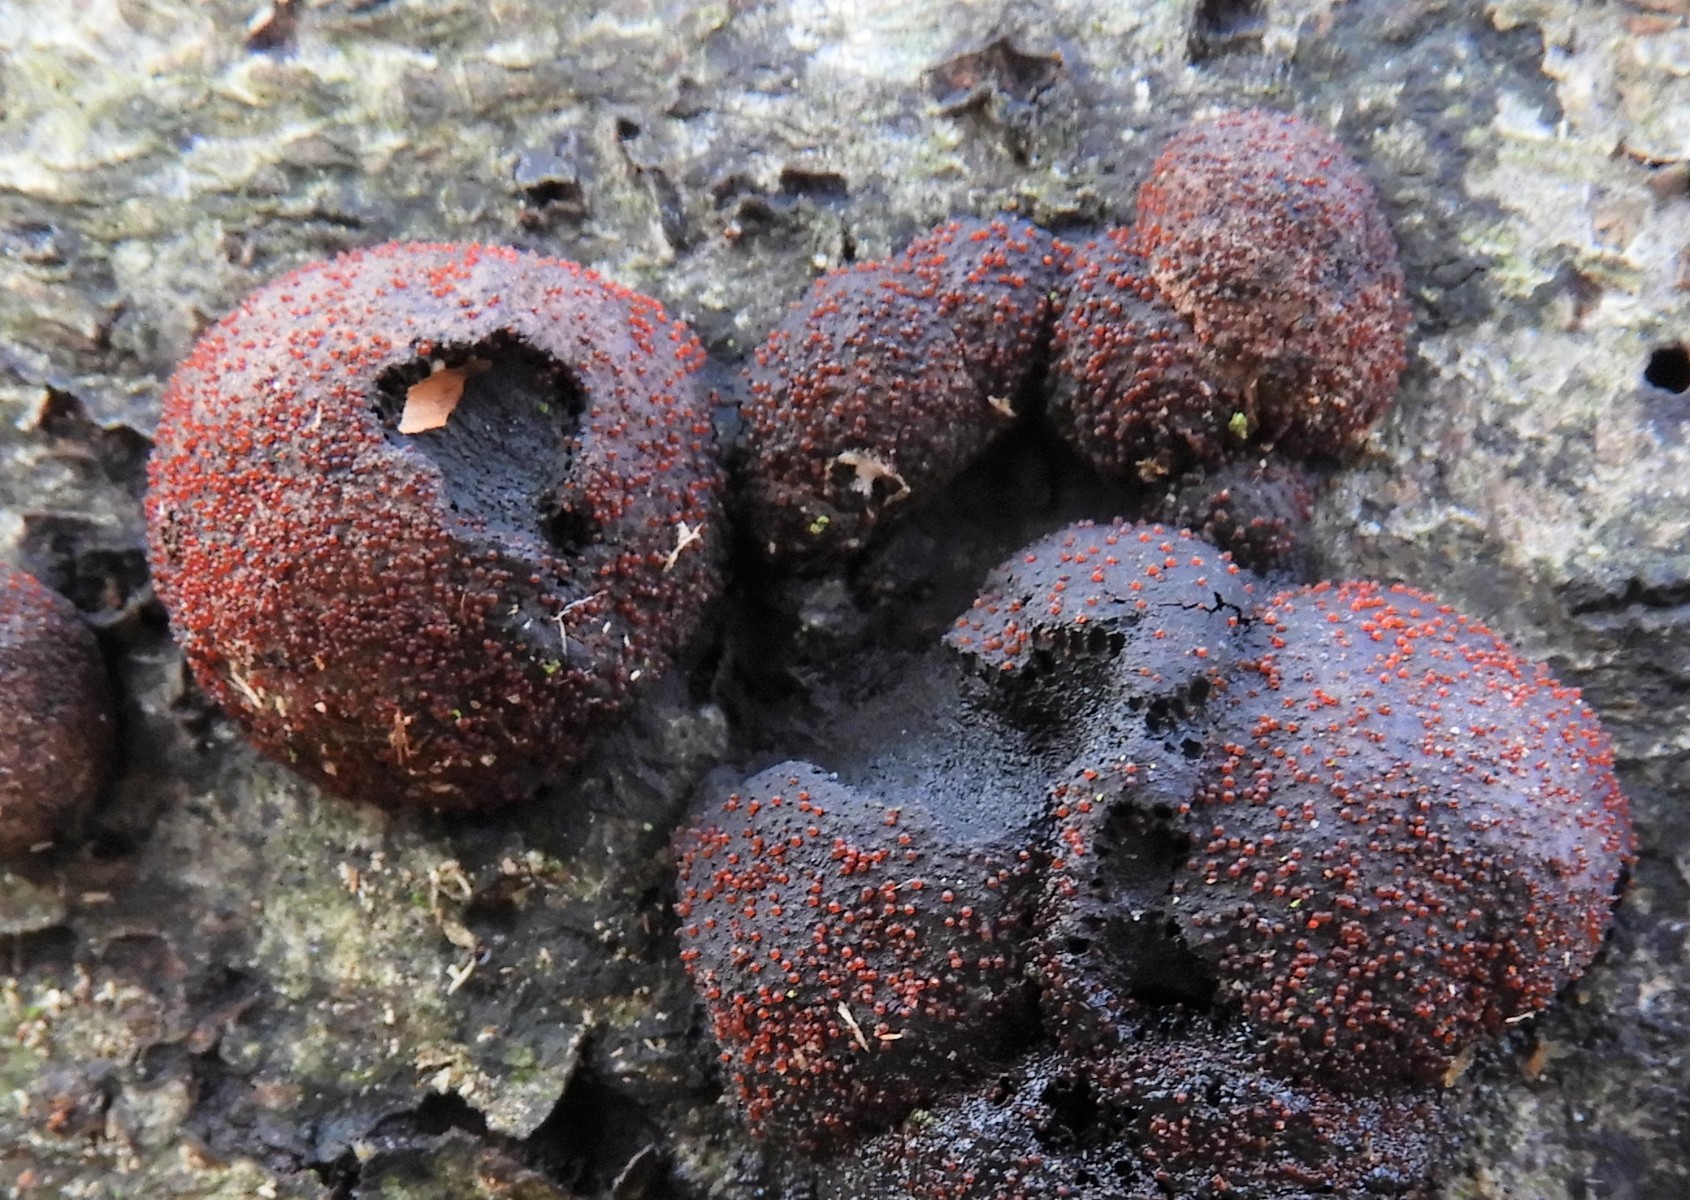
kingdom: Fungi
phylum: Ascomycota
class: Sordariomycetes
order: Hypocreales
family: Nectriaceae
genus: Cosmospora
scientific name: Cosmospora arxii
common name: kuljordbær-cinnobersvamp
